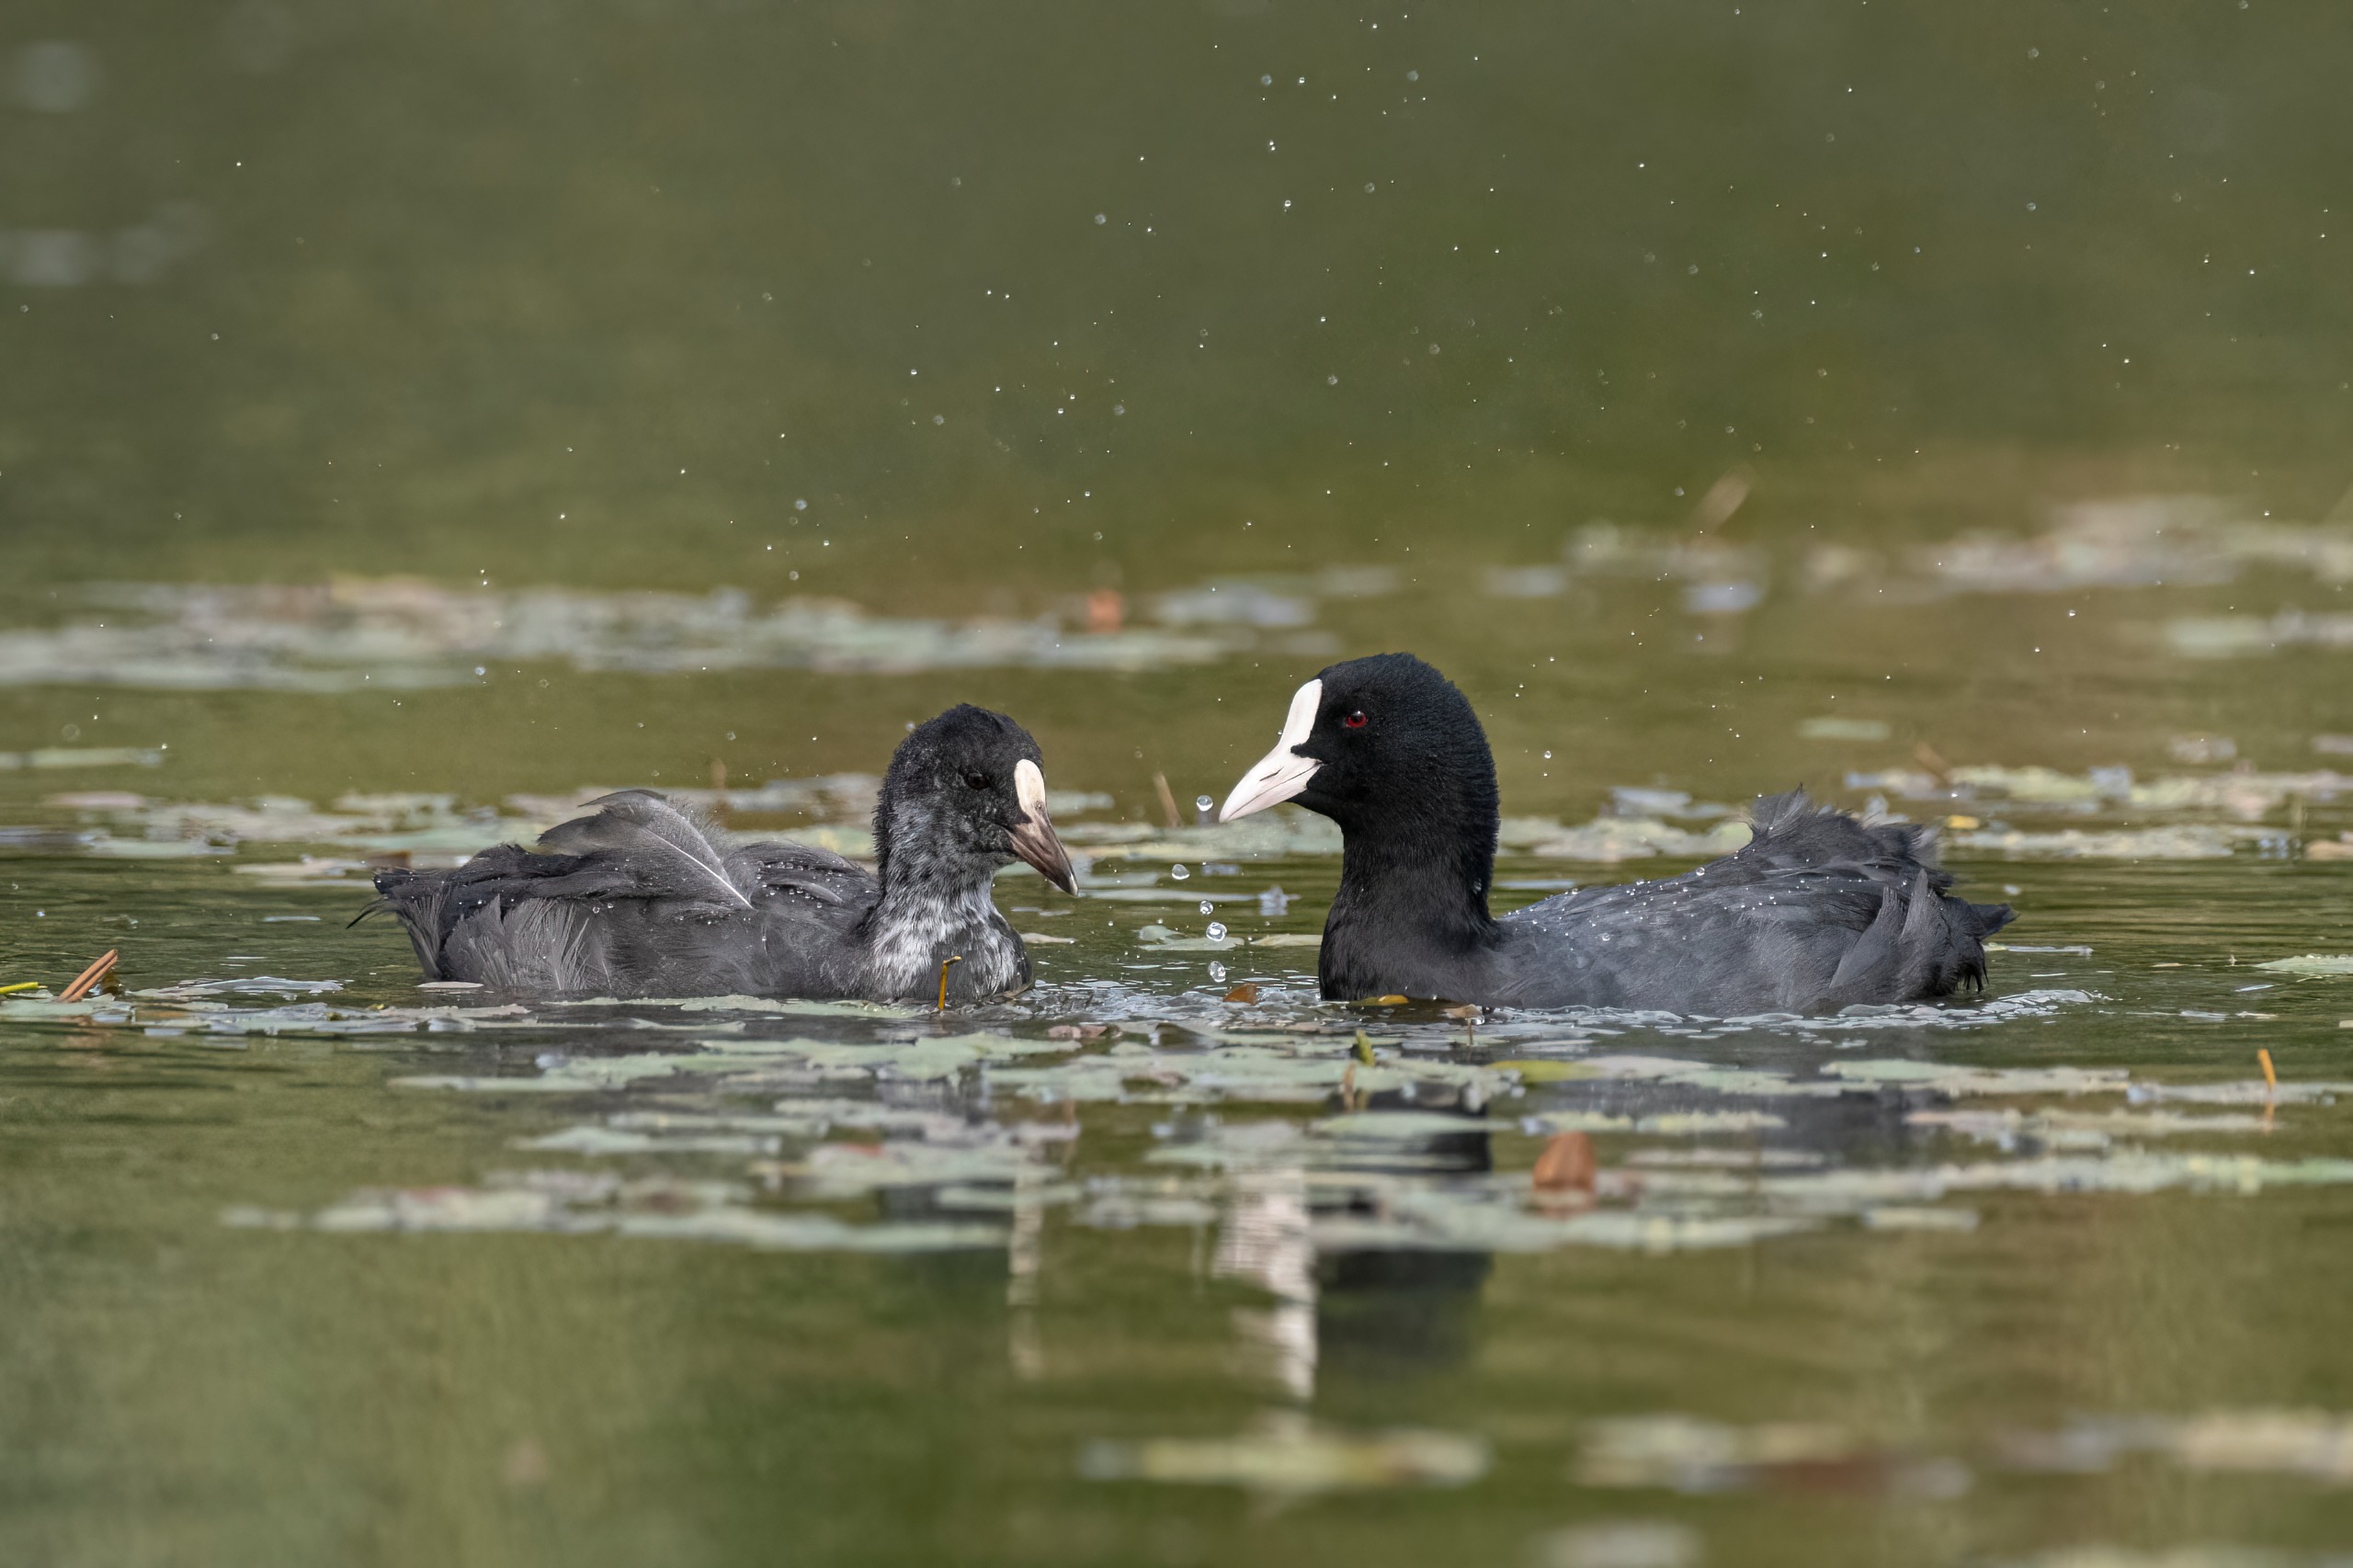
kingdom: Animalia
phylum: Chordata
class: Aves
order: Gruiformes
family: Rallidae
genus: Fulica
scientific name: Fulica atra
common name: Blishøne
